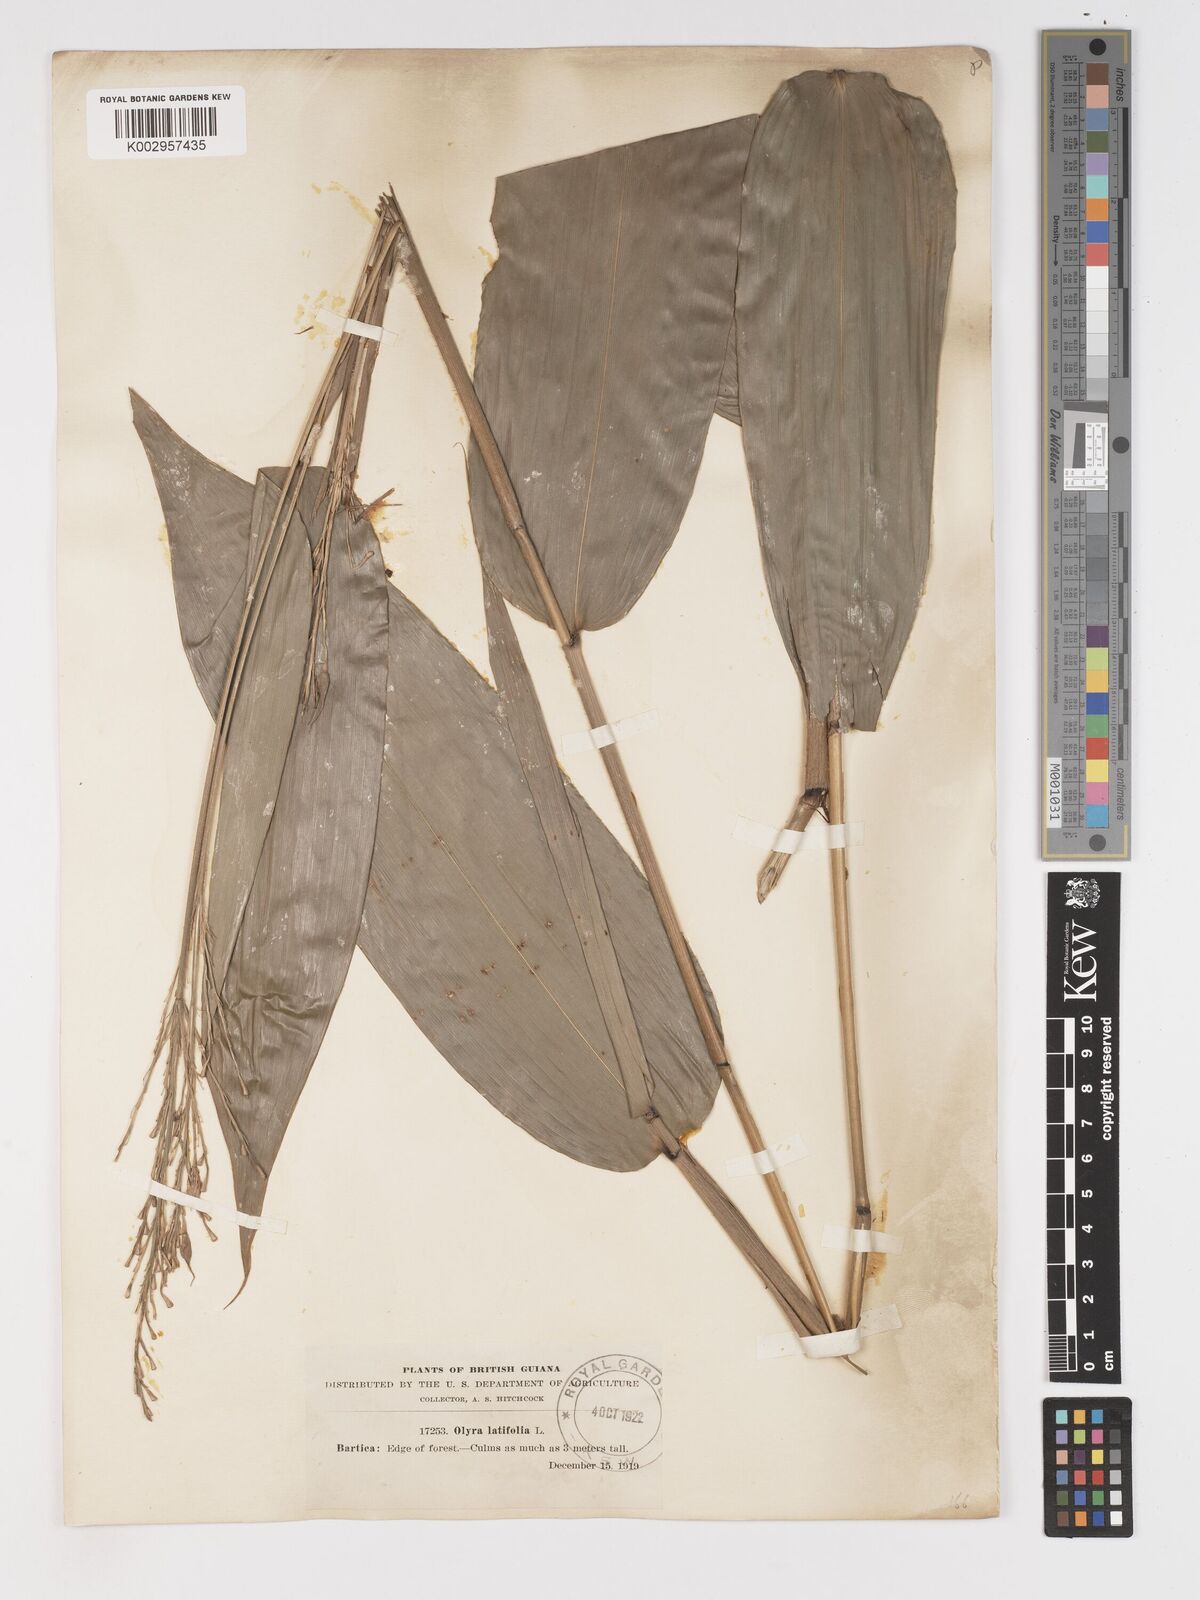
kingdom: Plantae
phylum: Tracheophyta
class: Liliopsida
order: Poales
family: Poaceae
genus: Olyra
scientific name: Olyra latifolia
